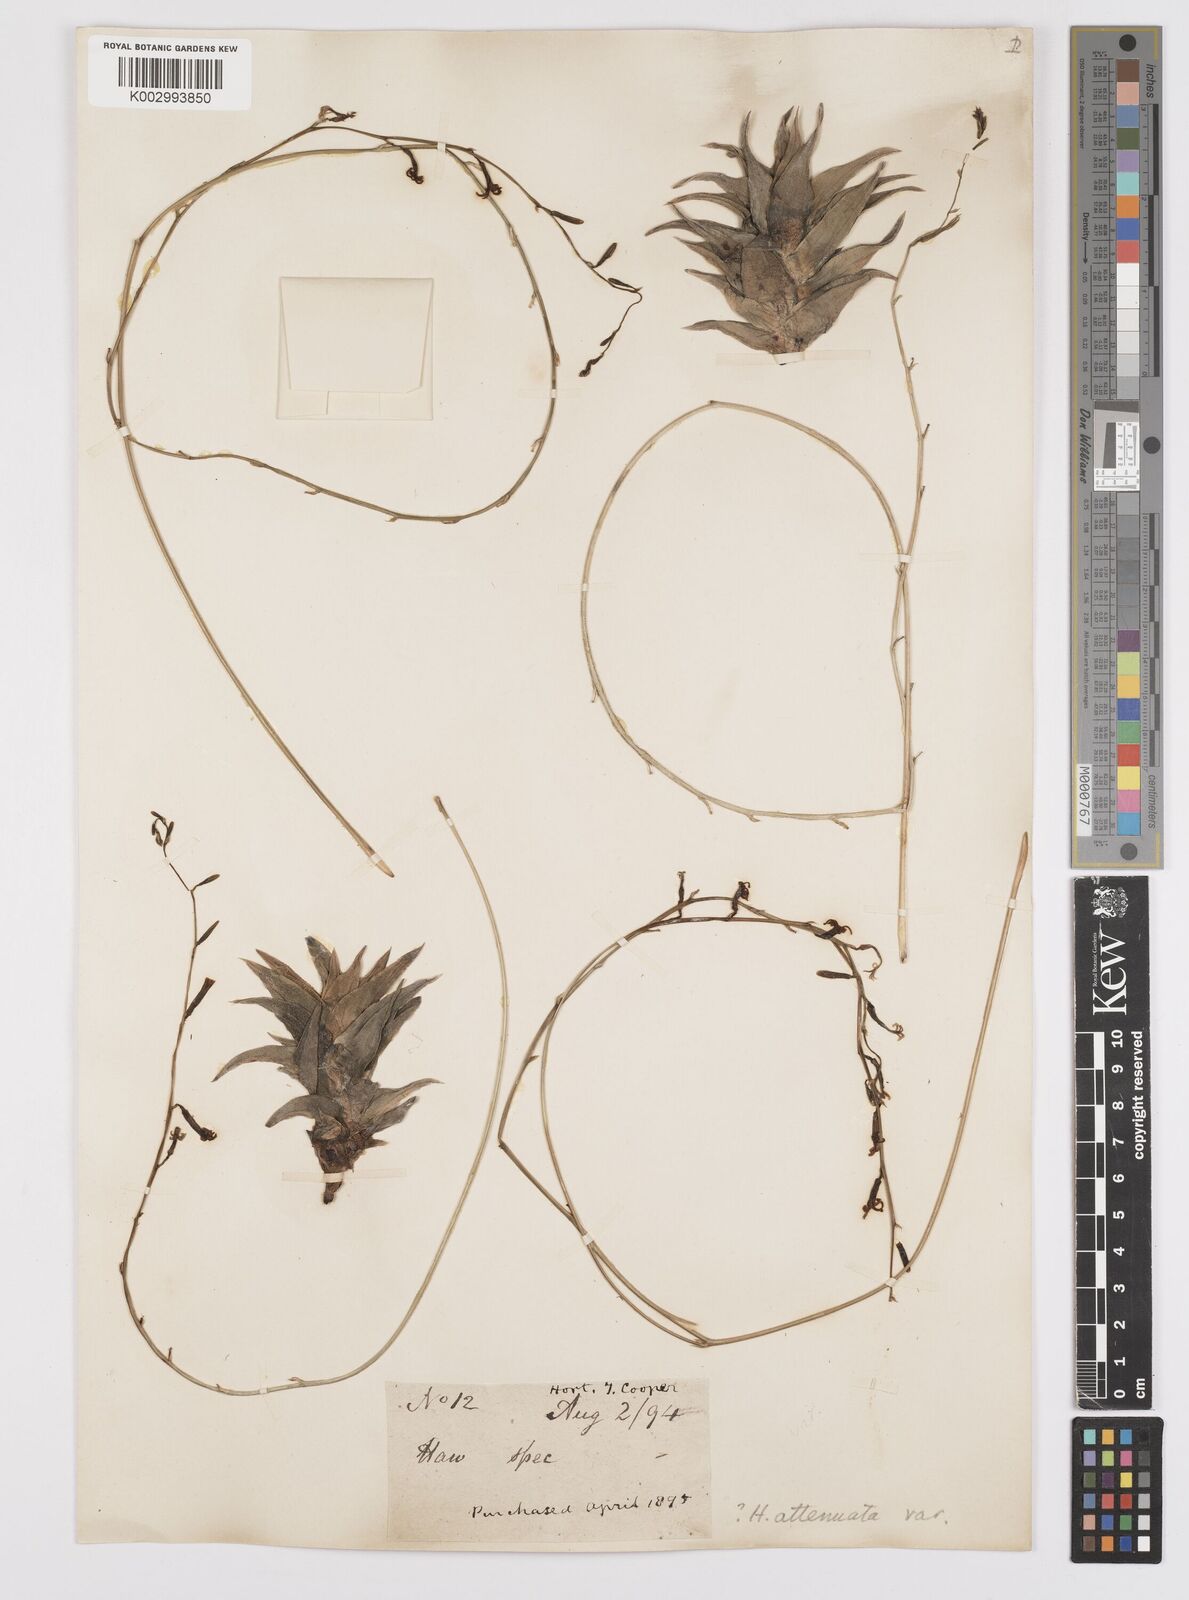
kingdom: Plantae
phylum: Tracheophyta
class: Liliopsida
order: Asparagales
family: Asphodelaceae
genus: Haworthiopsis
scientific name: Haworthiopsis attenuata
